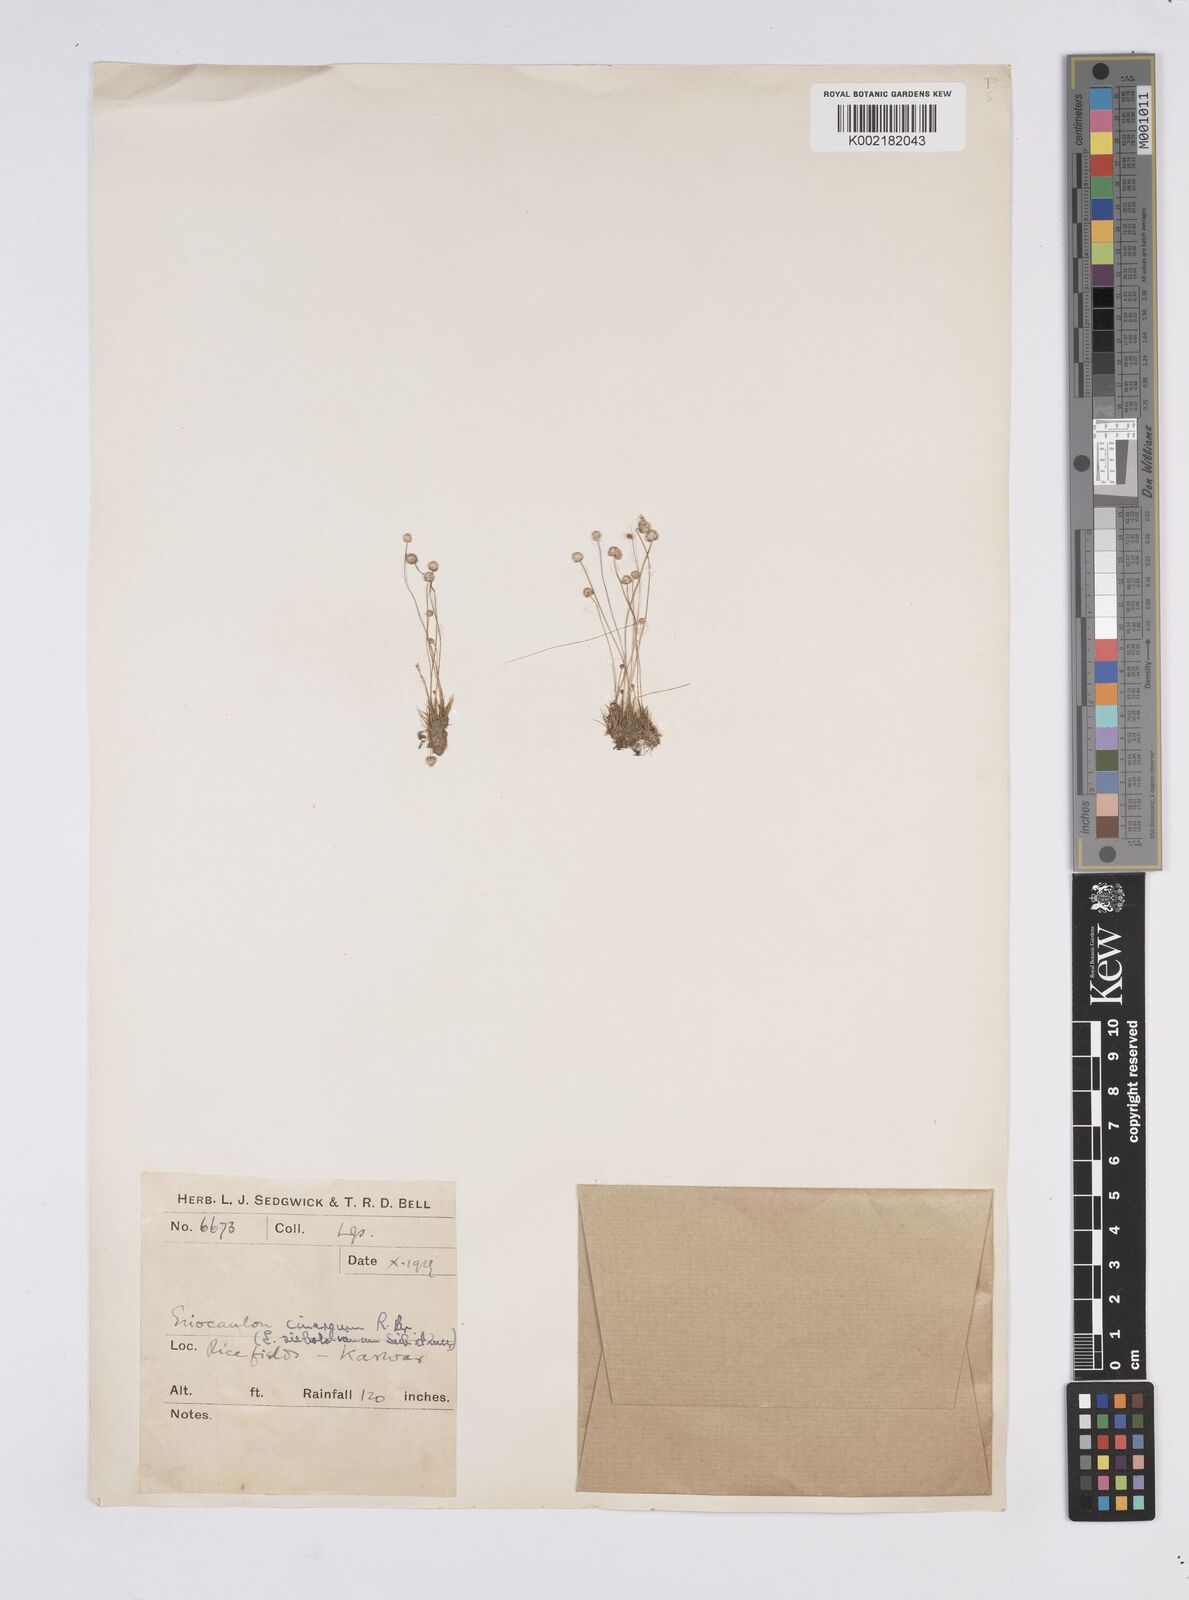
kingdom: Plantae
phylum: Tracheophyta
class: Liliopsida
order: Poales
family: Eriocaulaceae
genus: Eriocaulon
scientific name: Eriocaulon cinereum
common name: Ashy pipewort
